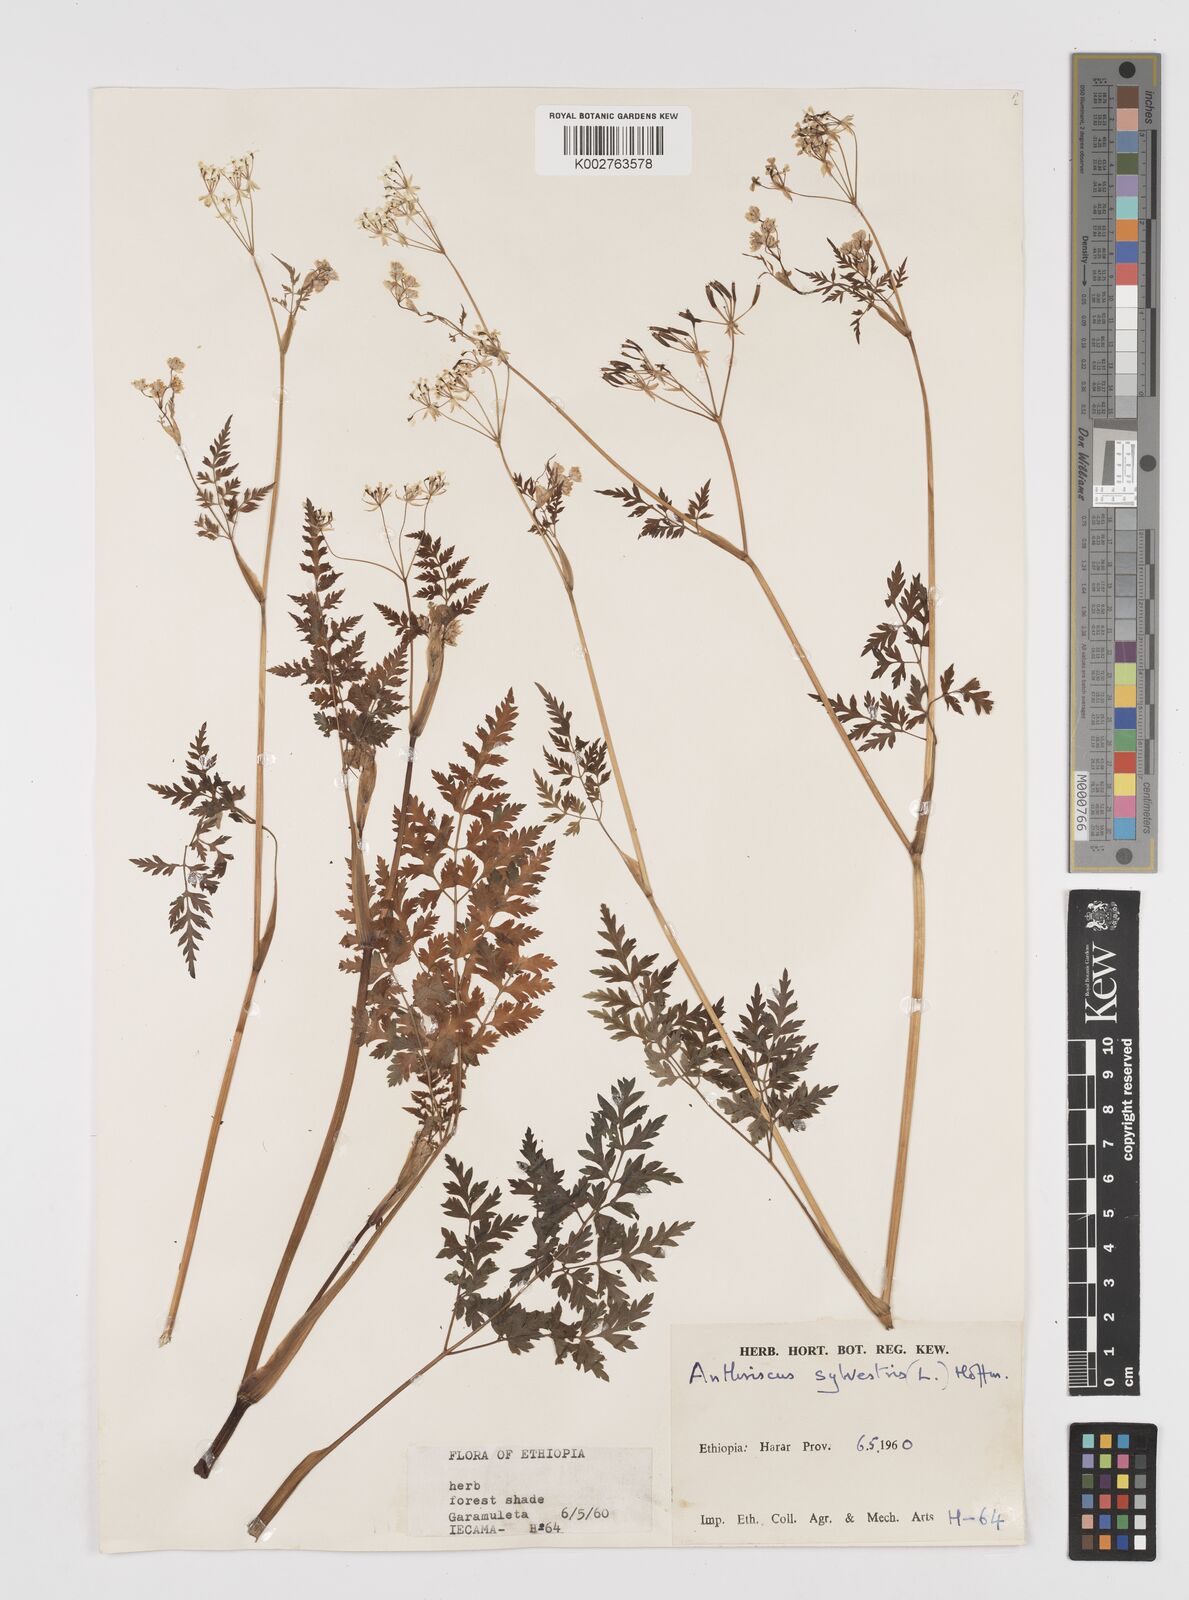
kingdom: Plantae
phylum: Tracheophyta
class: Magnoliopsida
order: Apiales
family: Apiaceae
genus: Anthriscus
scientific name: Anthriscus sylvestris
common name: Cow parsley
